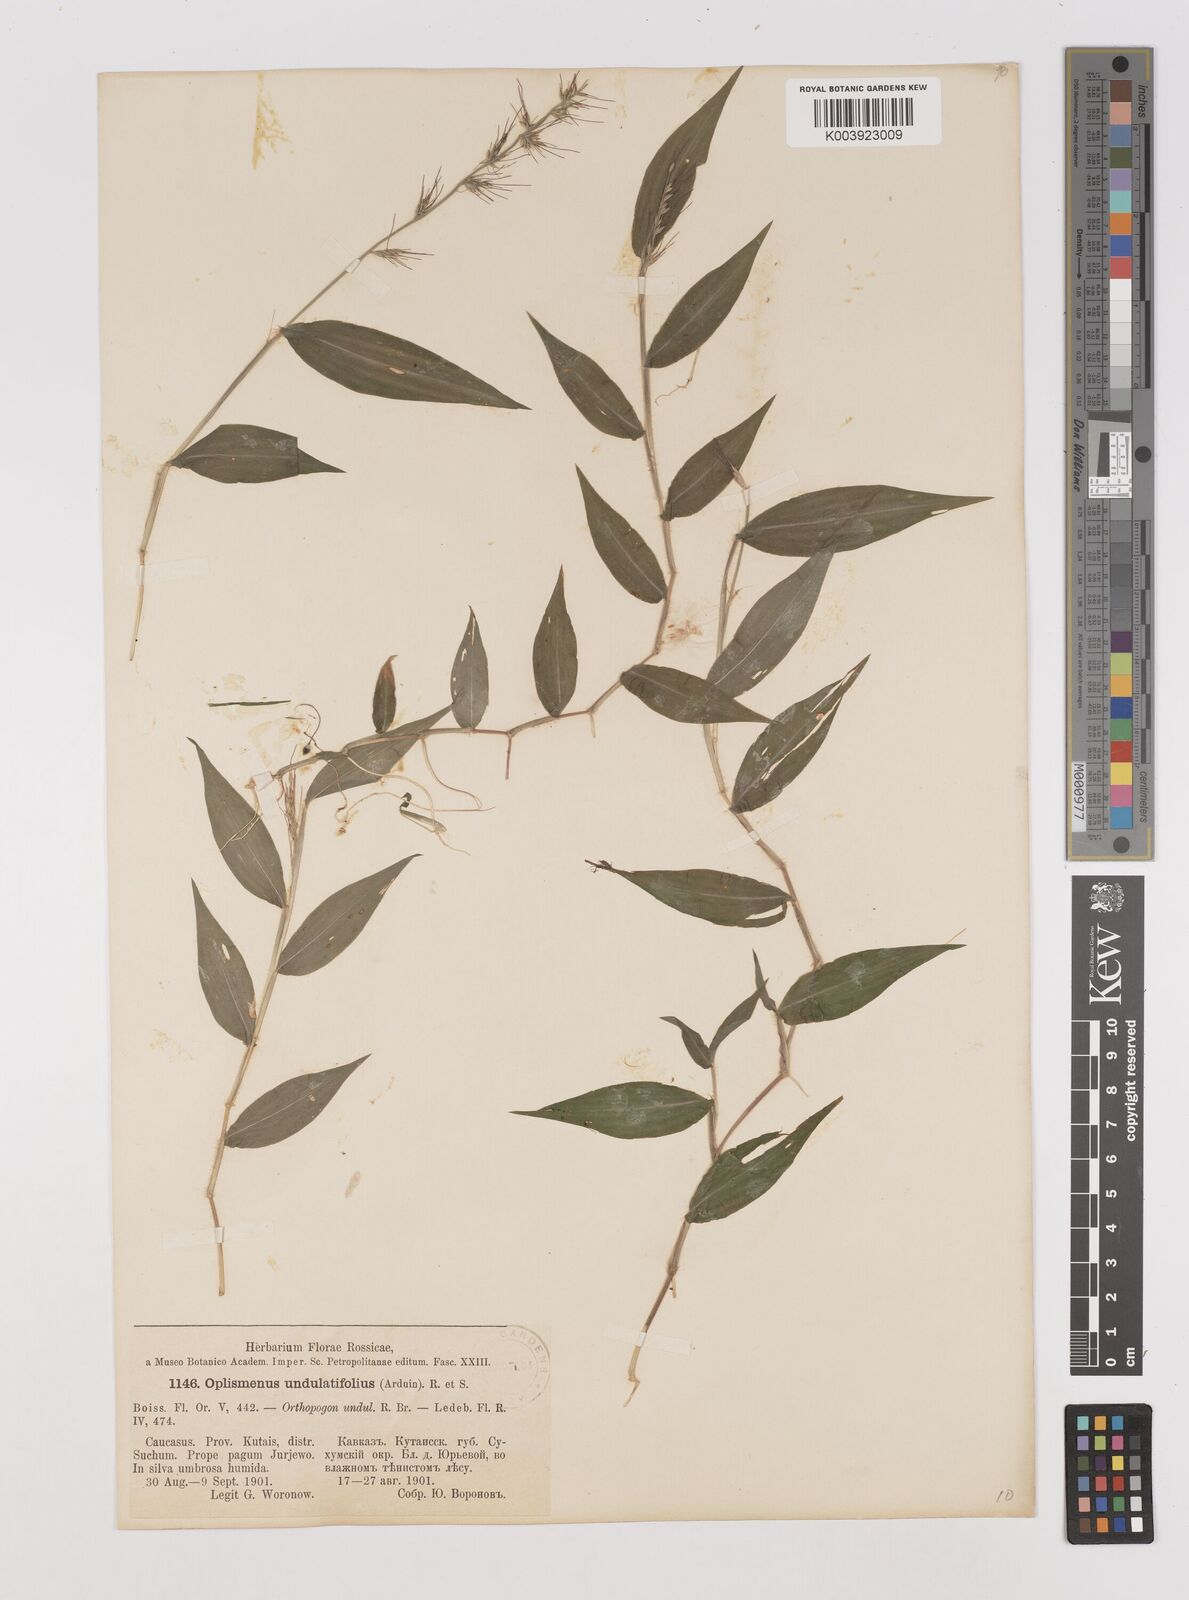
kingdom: Plantae
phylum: Tracheophyta
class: Liliopsida
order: Poales
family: Poaceae
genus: Oplismenus
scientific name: Oplismenus undulatifolius
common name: Wavyleaf basketgrass
